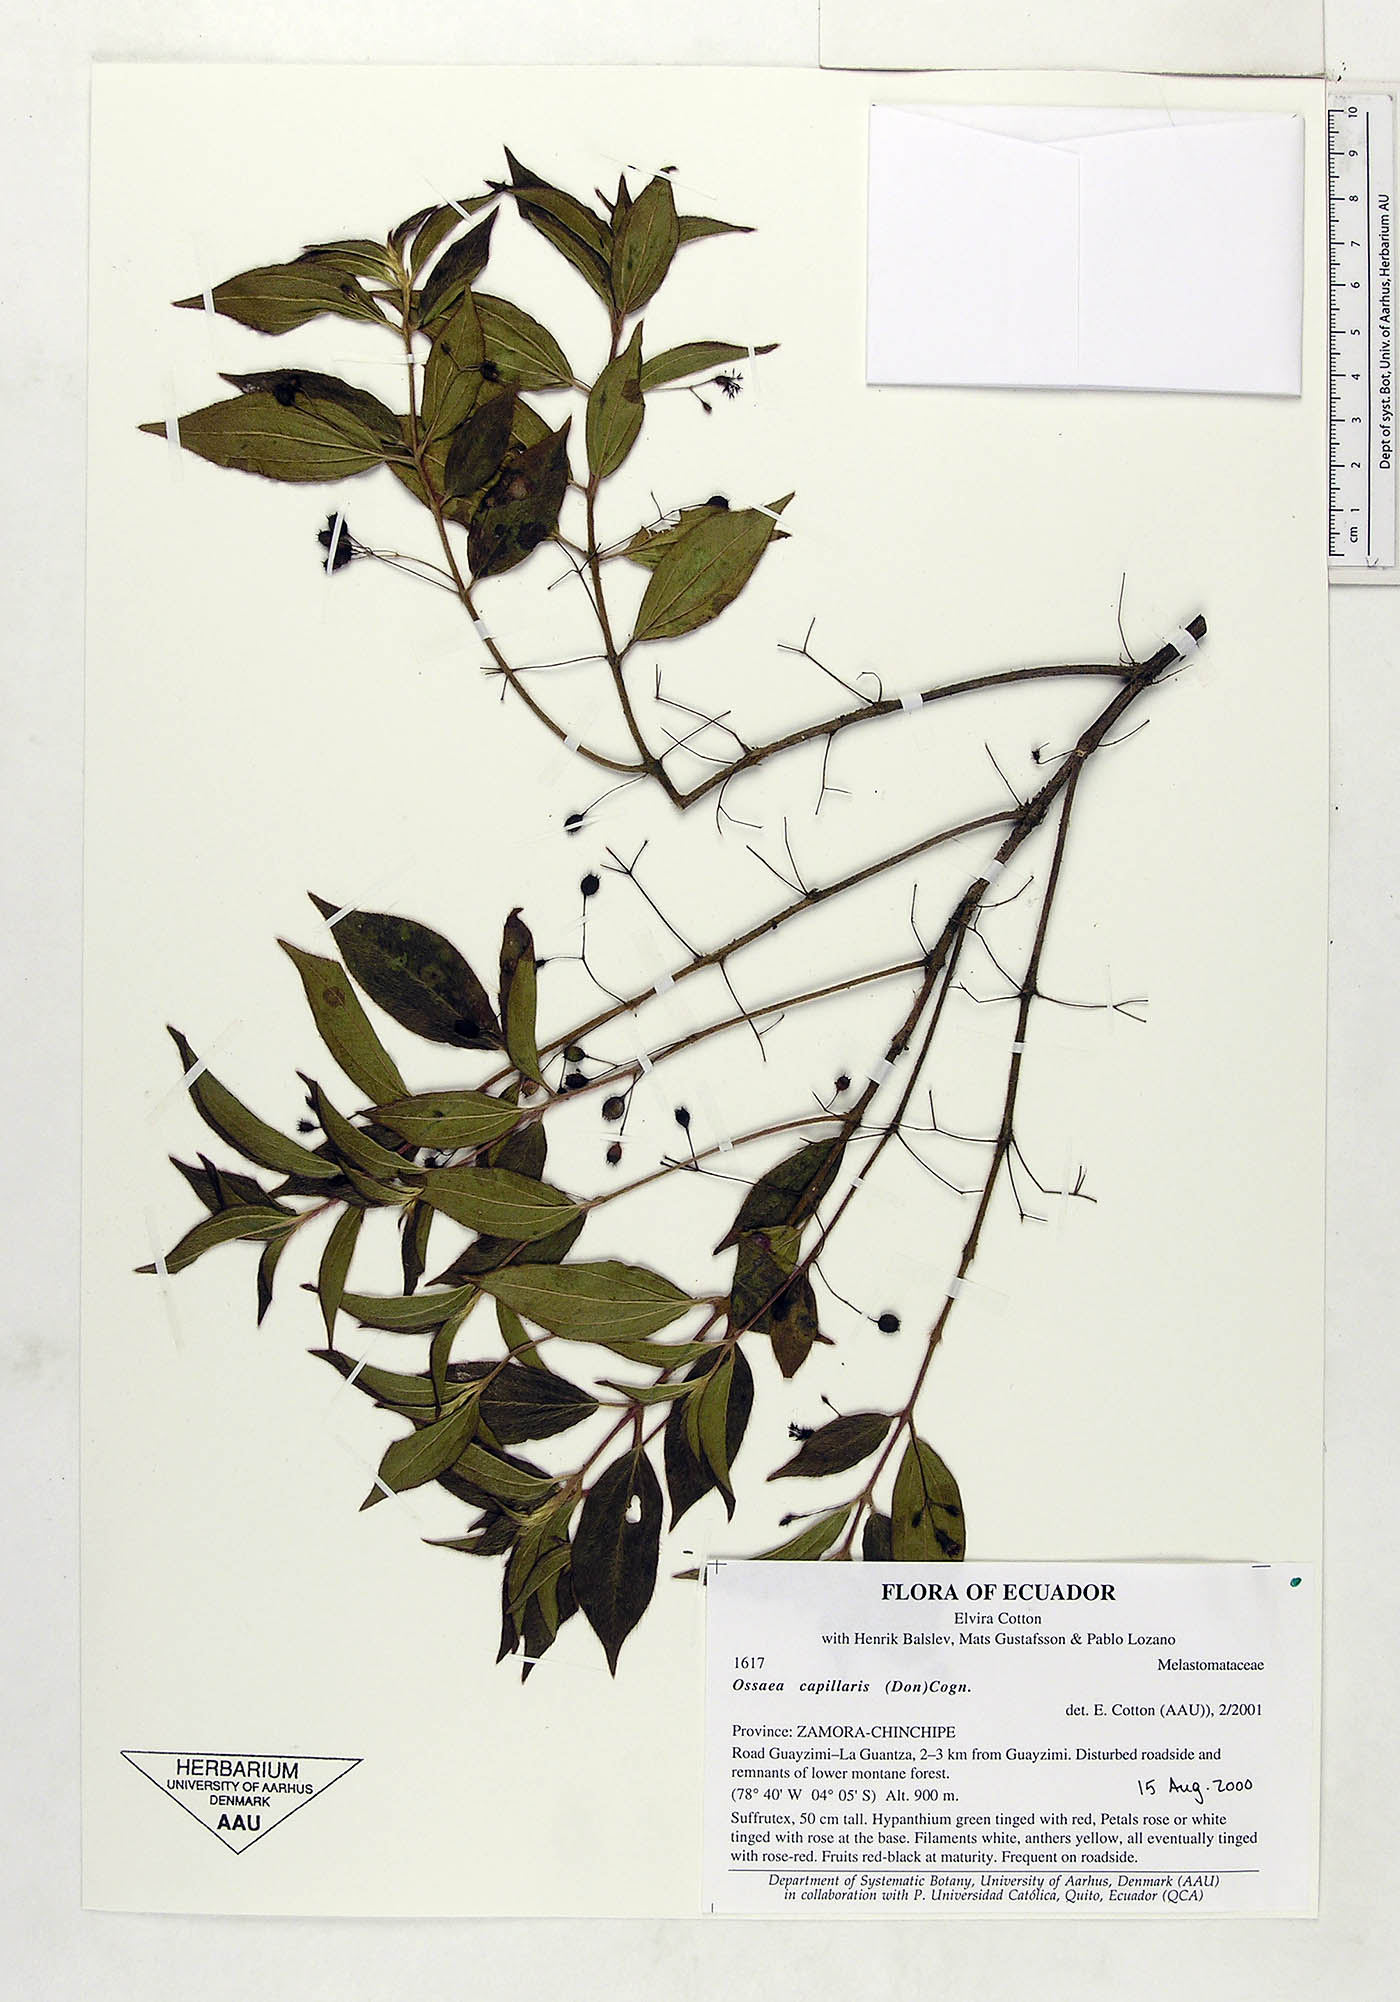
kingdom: Plantae
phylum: Tracheophyta
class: Magnoliopsida
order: Myrtales
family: Melastomataceae
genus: Miconia
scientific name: Miconia leptopus
